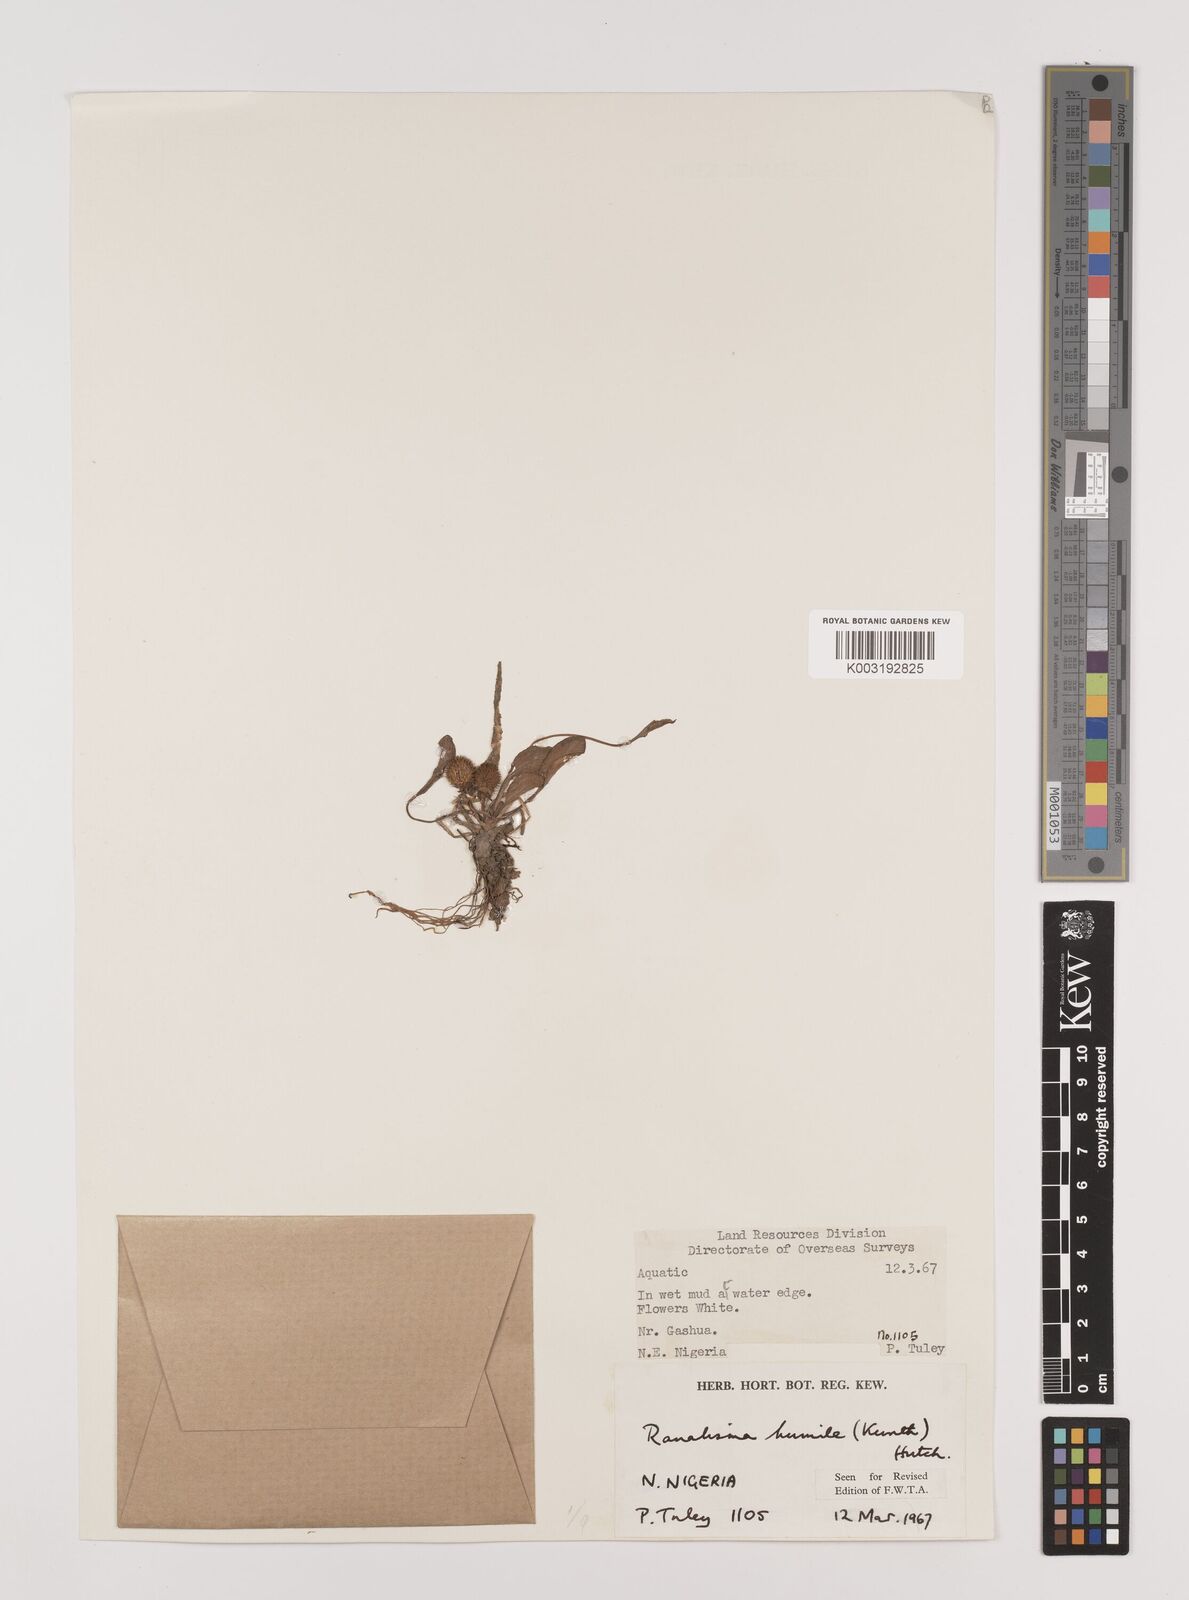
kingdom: Plantae
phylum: Tracheophyta
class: Liliopsida
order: Alismatales
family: Alismataceae
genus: Ranalisma
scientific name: Ranalisma humile
